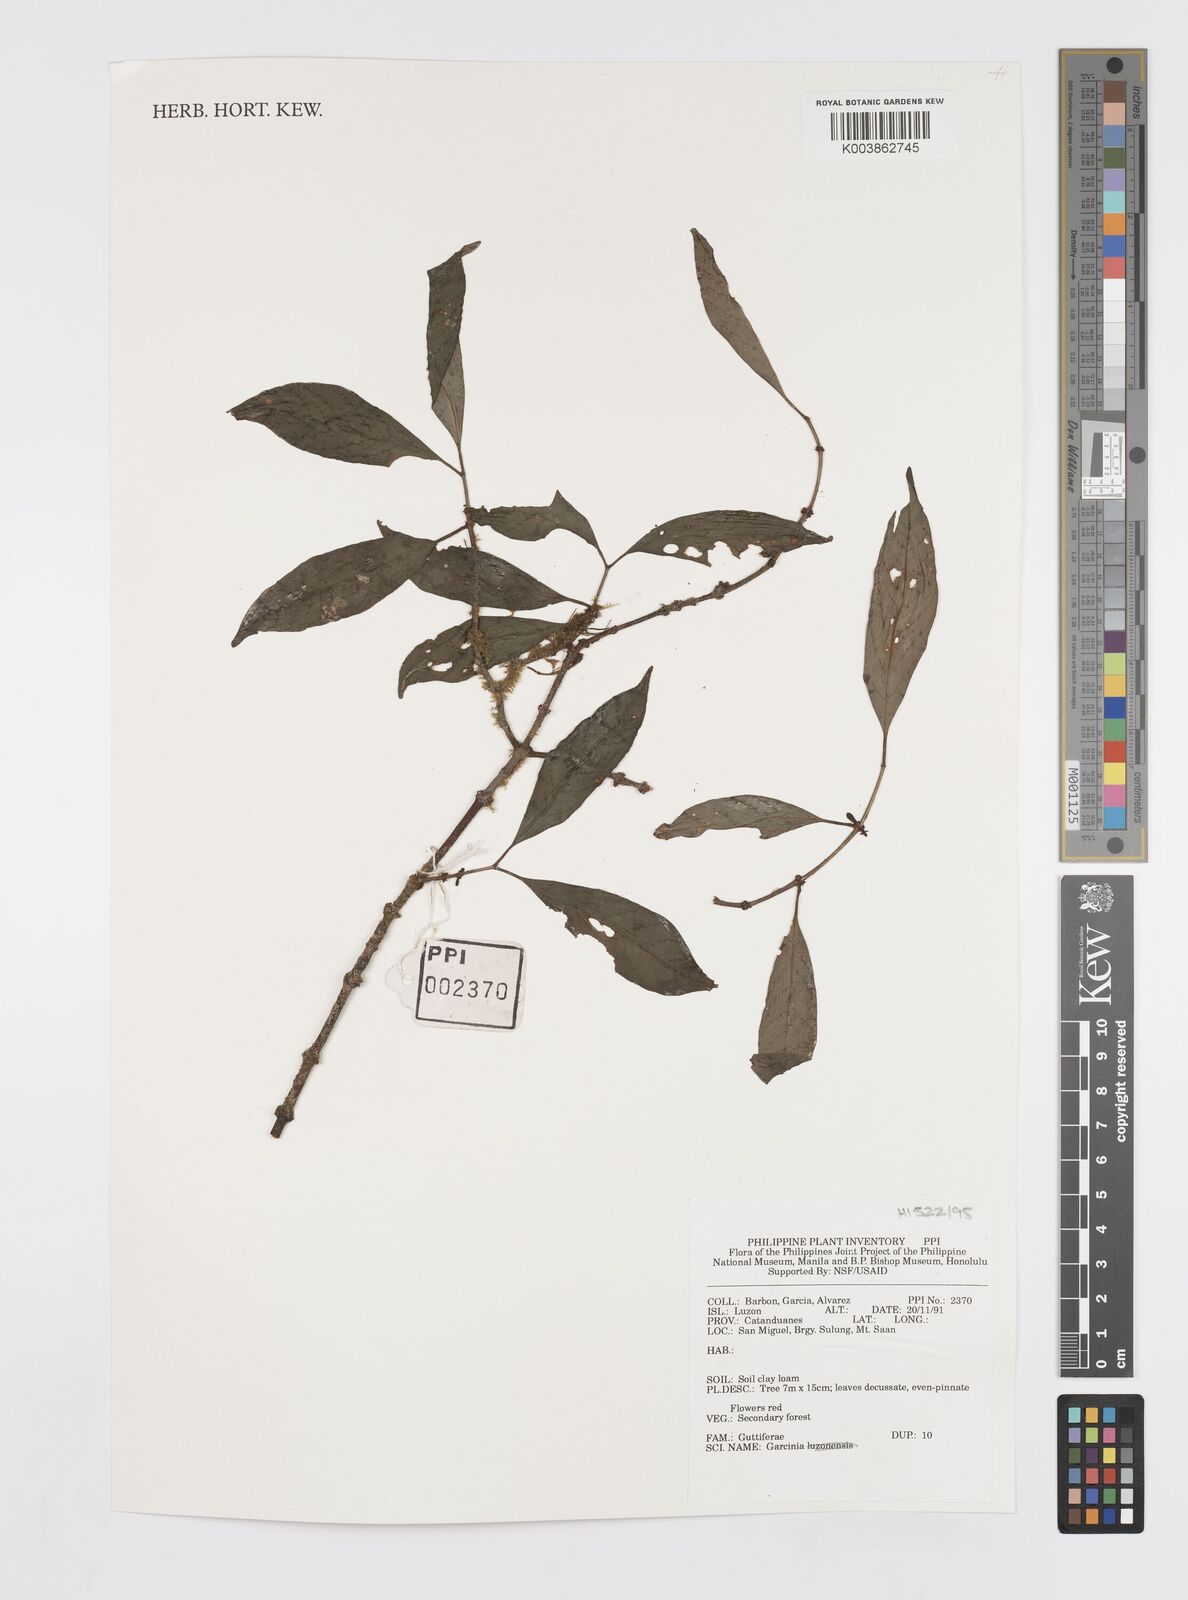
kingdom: Plantae
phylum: Tracheophyta
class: Magnoliopsida
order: Malpighiales
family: Clusiaceae
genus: Garcinia
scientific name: Garcinia
